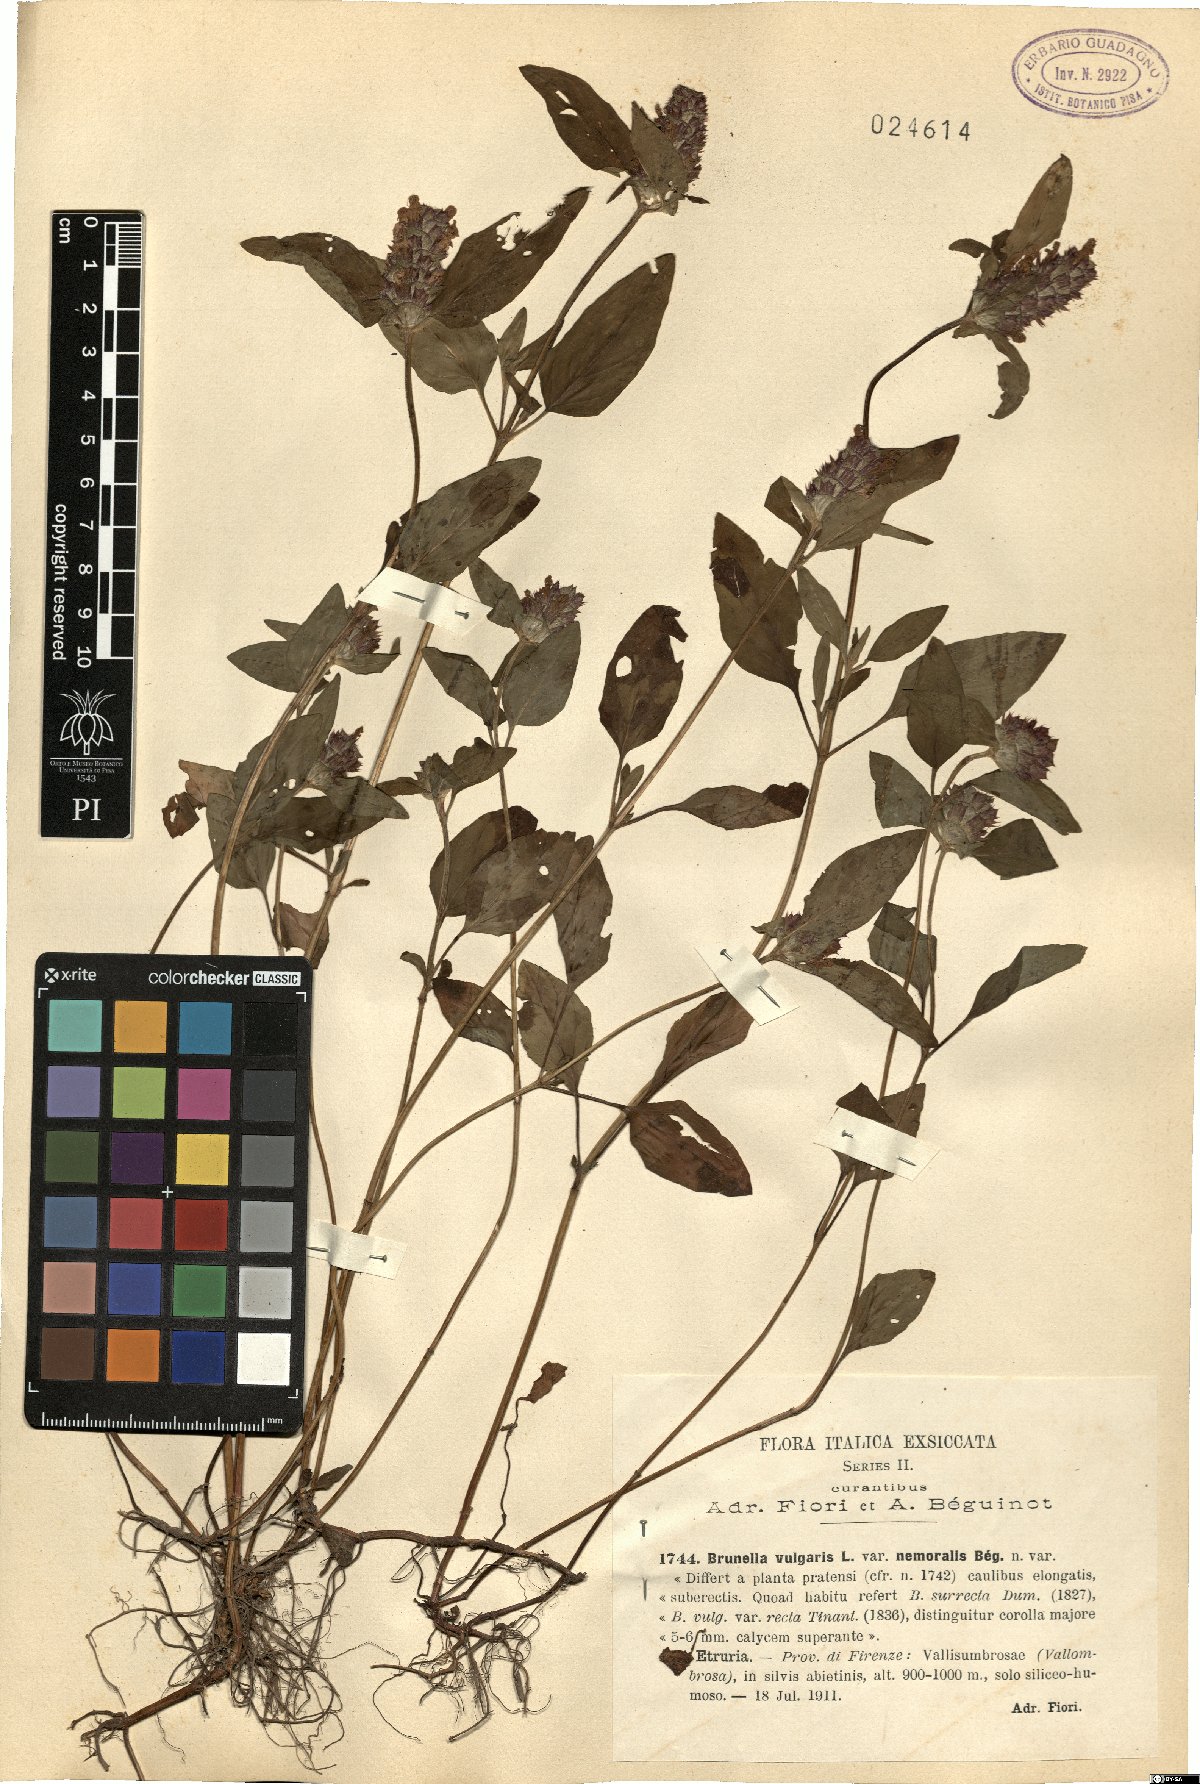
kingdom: Plantae
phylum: Tracheophyta
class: Magnoliopsida
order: Lamiales
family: Lamiaceae
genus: Prunella
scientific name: Prunella laciniata
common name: Cut-leaved selfheal
